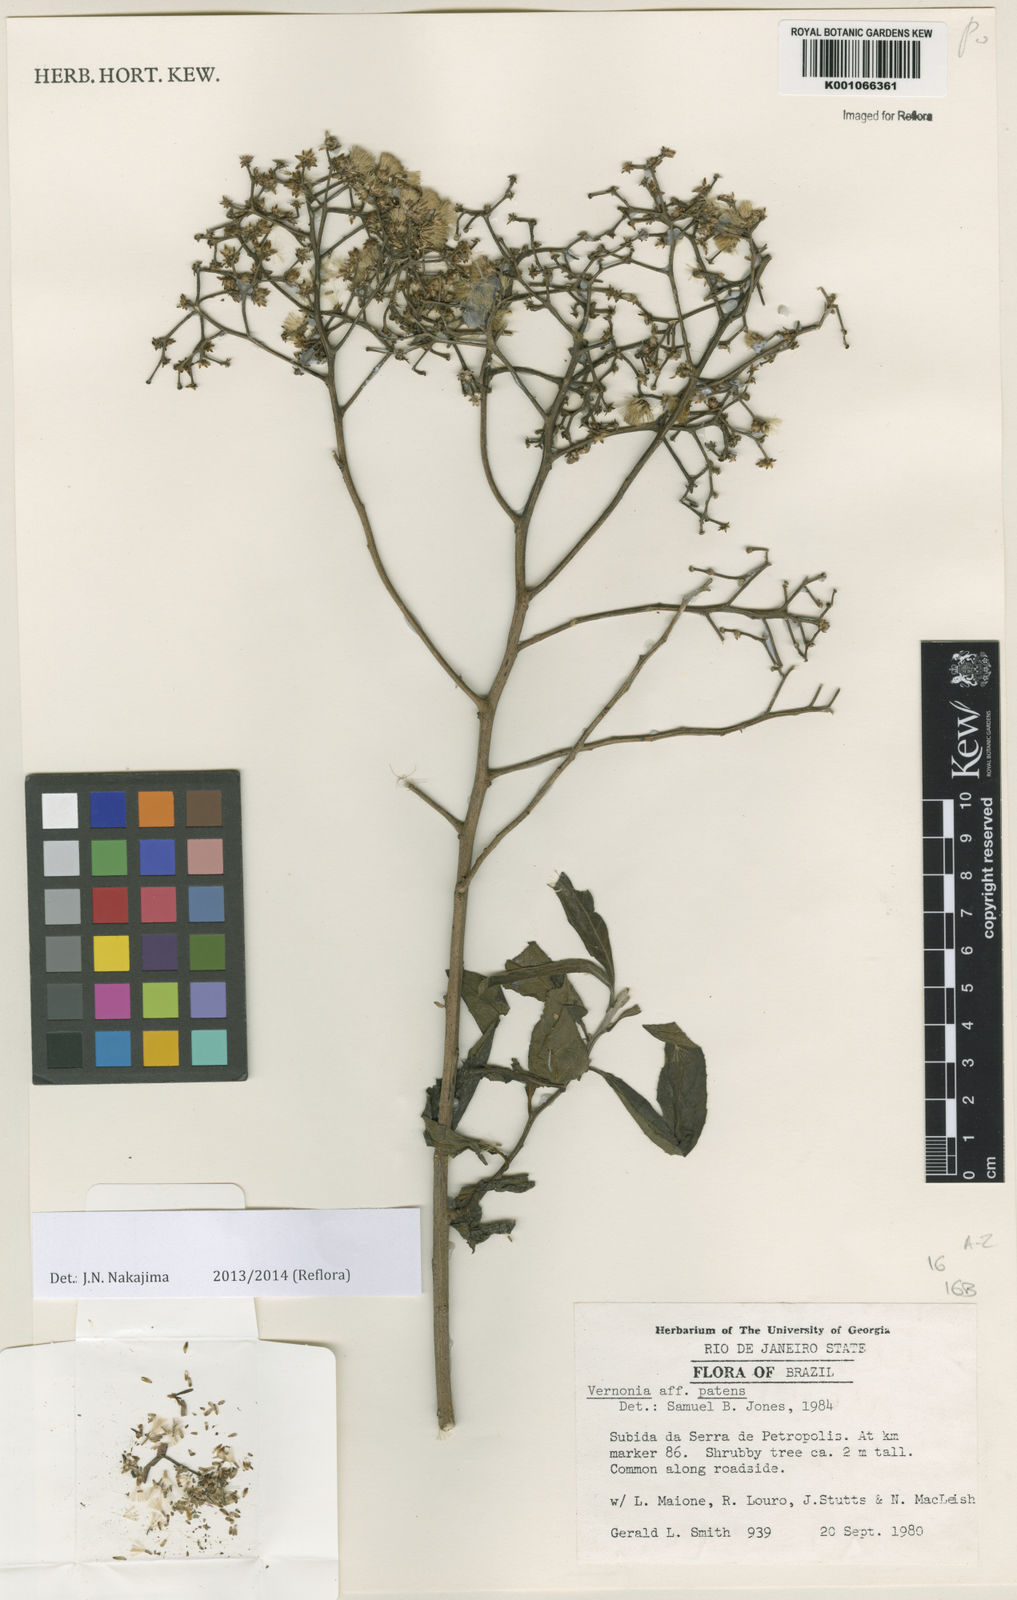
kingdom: Plantae
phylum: Tracheophyta
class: Magnoliopsida
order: Asterales
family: Asteraceae
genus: Vernonia
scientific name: Vernonia
